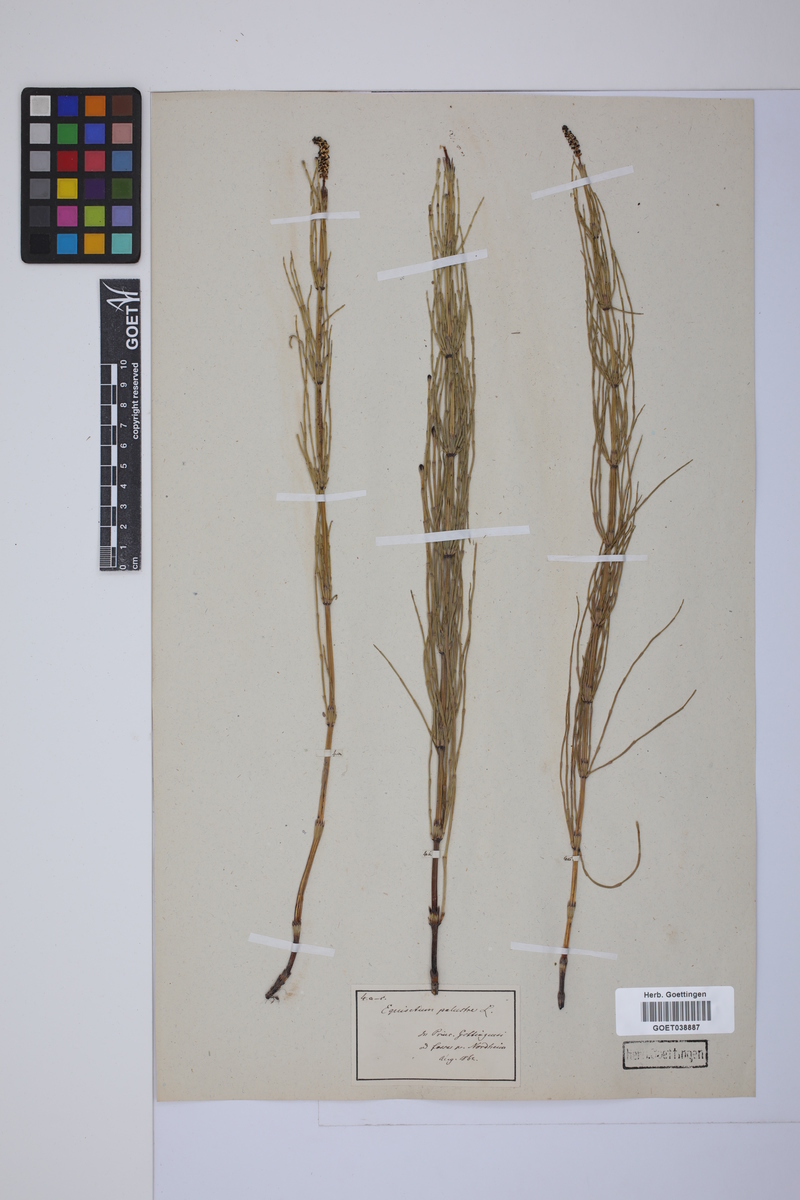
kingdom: Plantae
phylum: Tracheophyta
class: Polypodiopsida
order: Equisetales
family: Equisetaceae
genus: Equisetum
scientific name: Equisetum palustre
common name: Marsh horsetail
